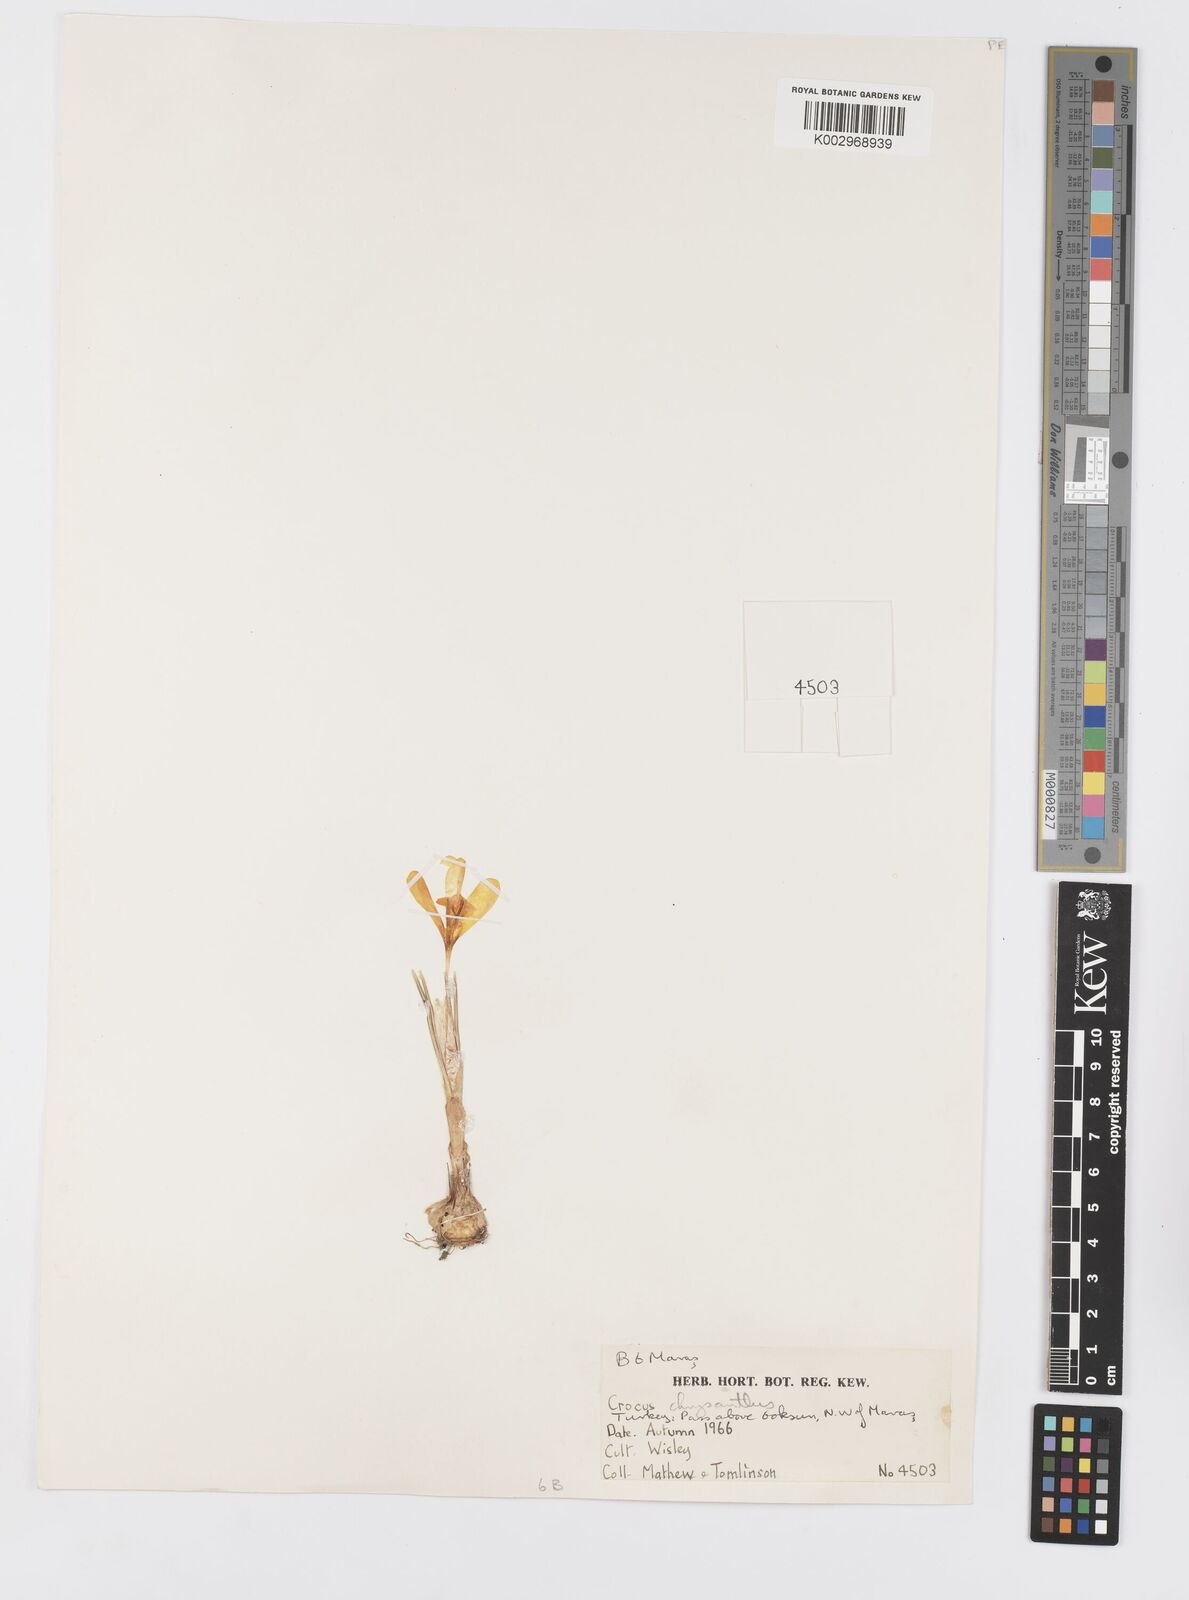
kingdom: Plantae
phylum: Tracheophyta
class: Liliopsida
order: Asparagales
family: Iridaceae
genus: Crocus
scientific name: Crocus chrysanthus
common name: Golden crocus
